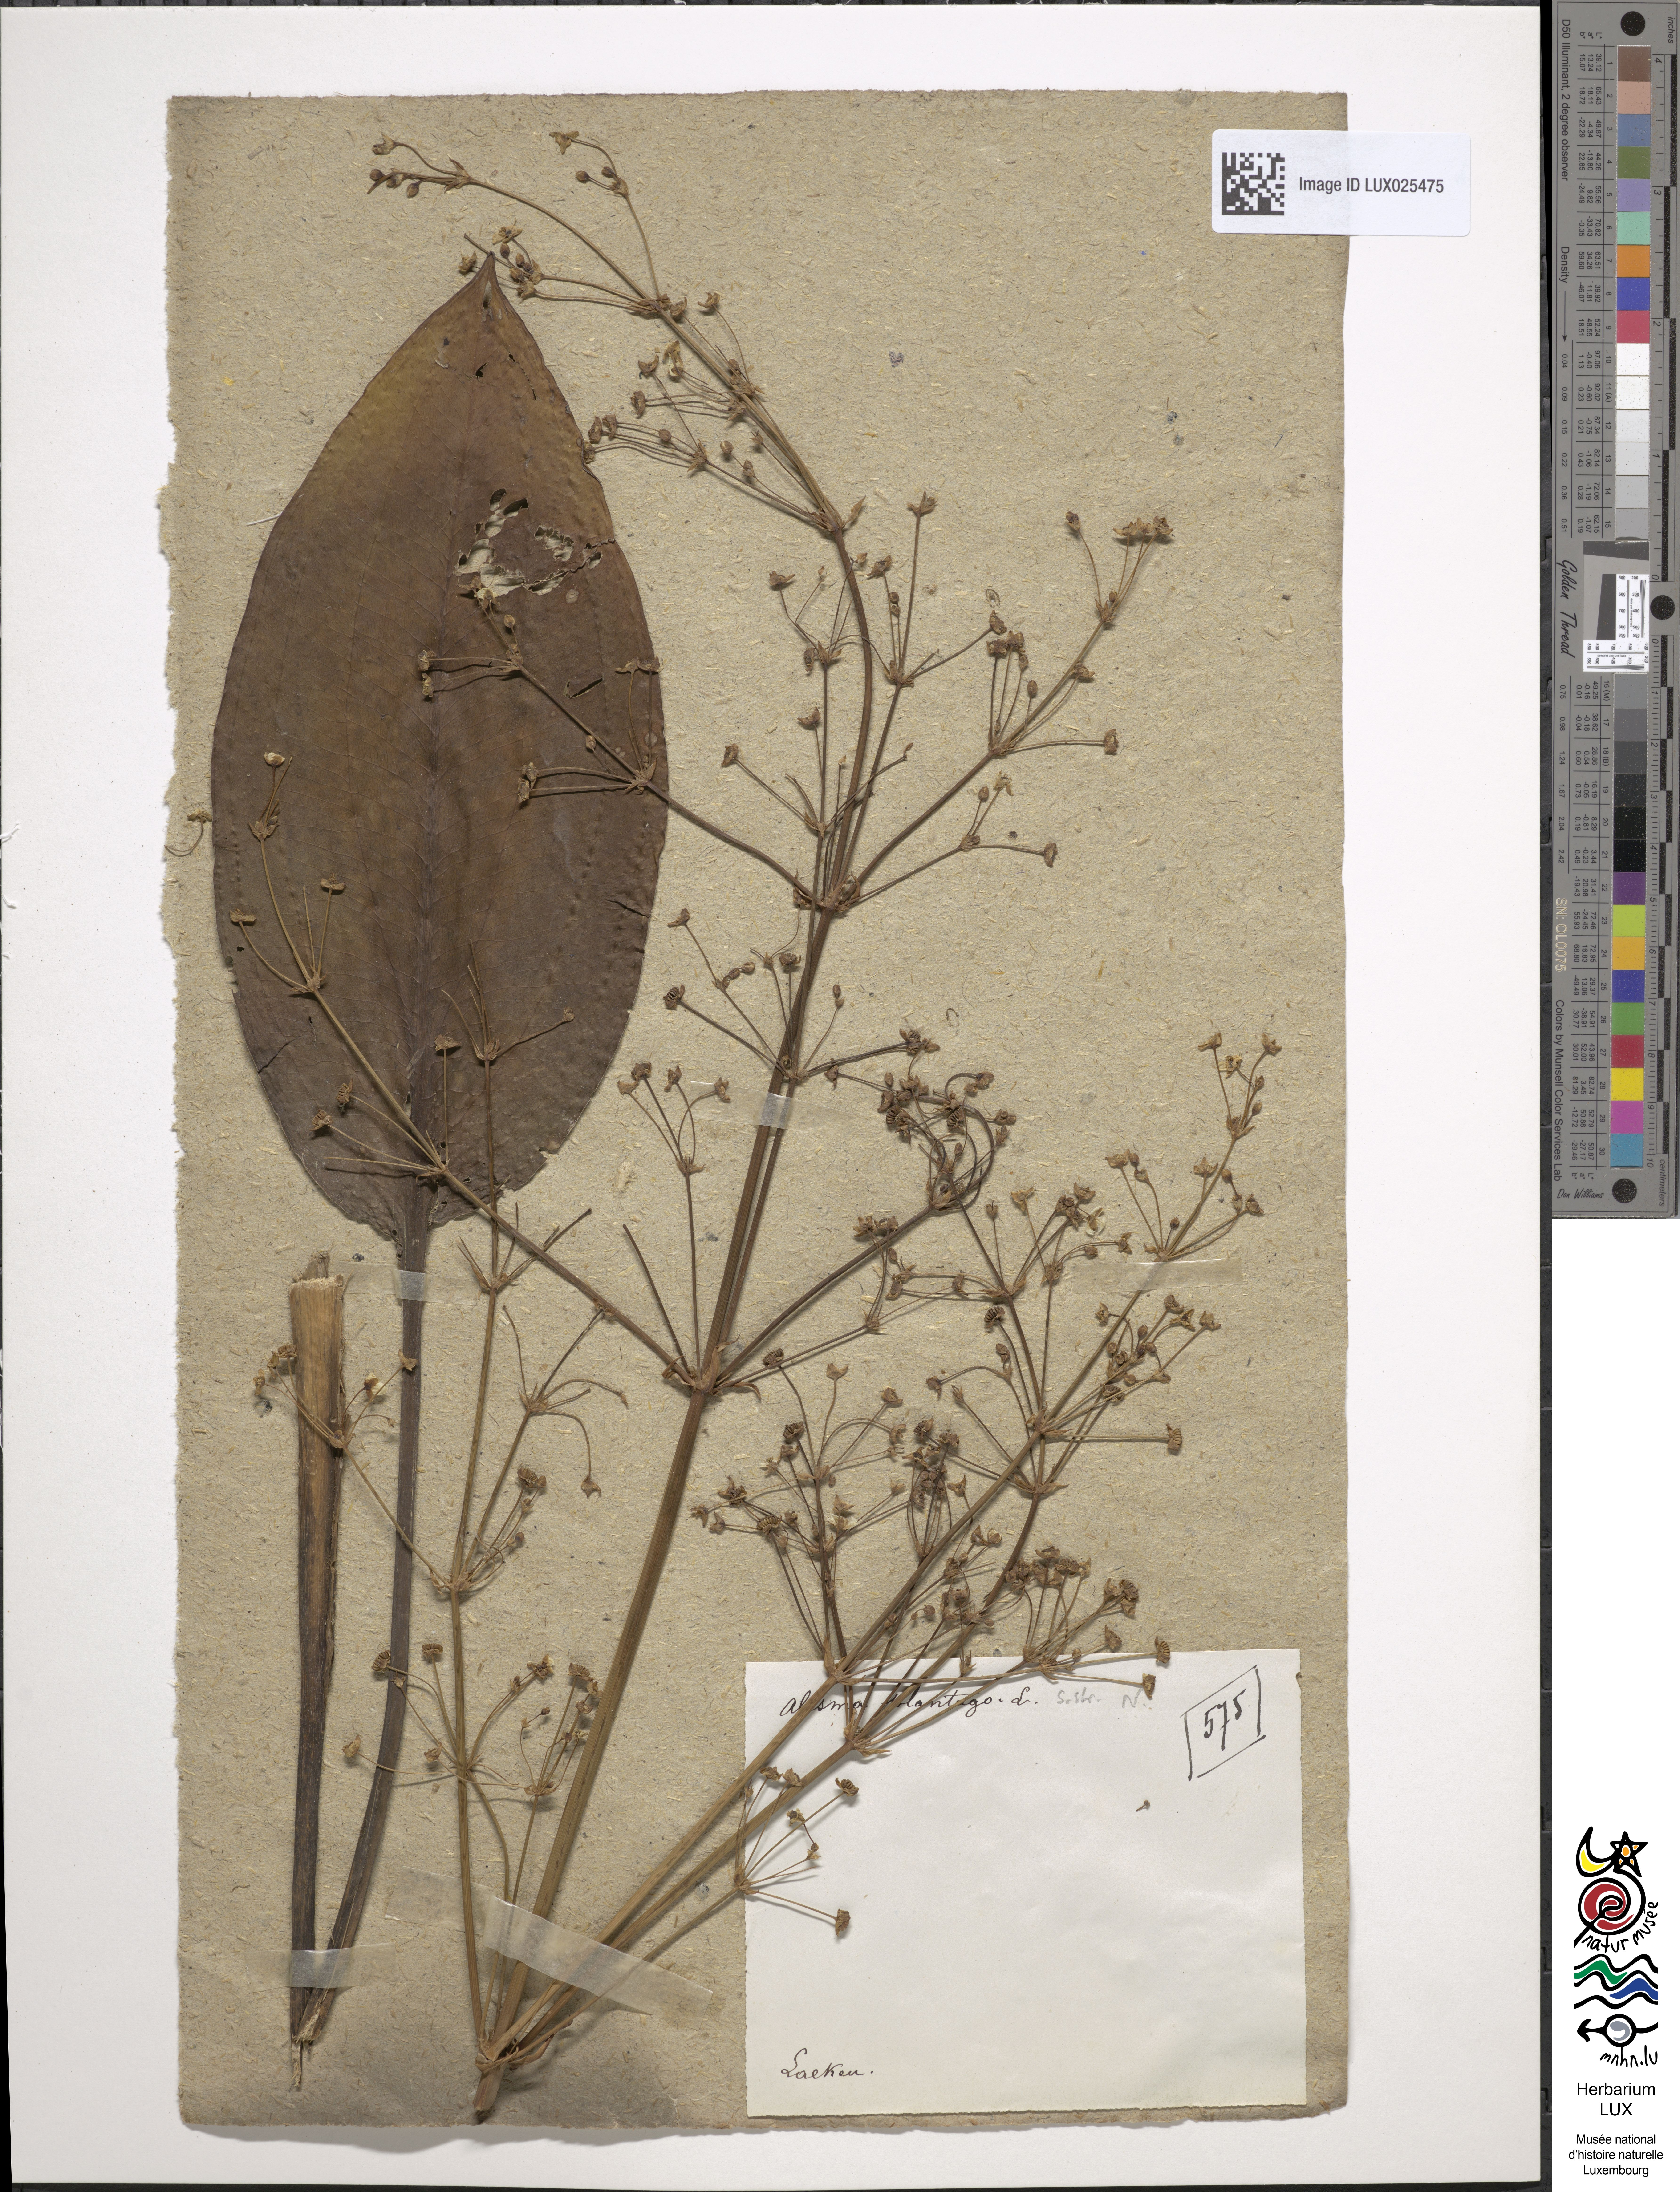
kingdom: Plantae
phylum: Tracheophyta
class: Liliopsida
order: Alismatales
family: Alismataceae
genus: Alisma
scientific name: Alisma plantago-aquatica
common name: Water-plantain
